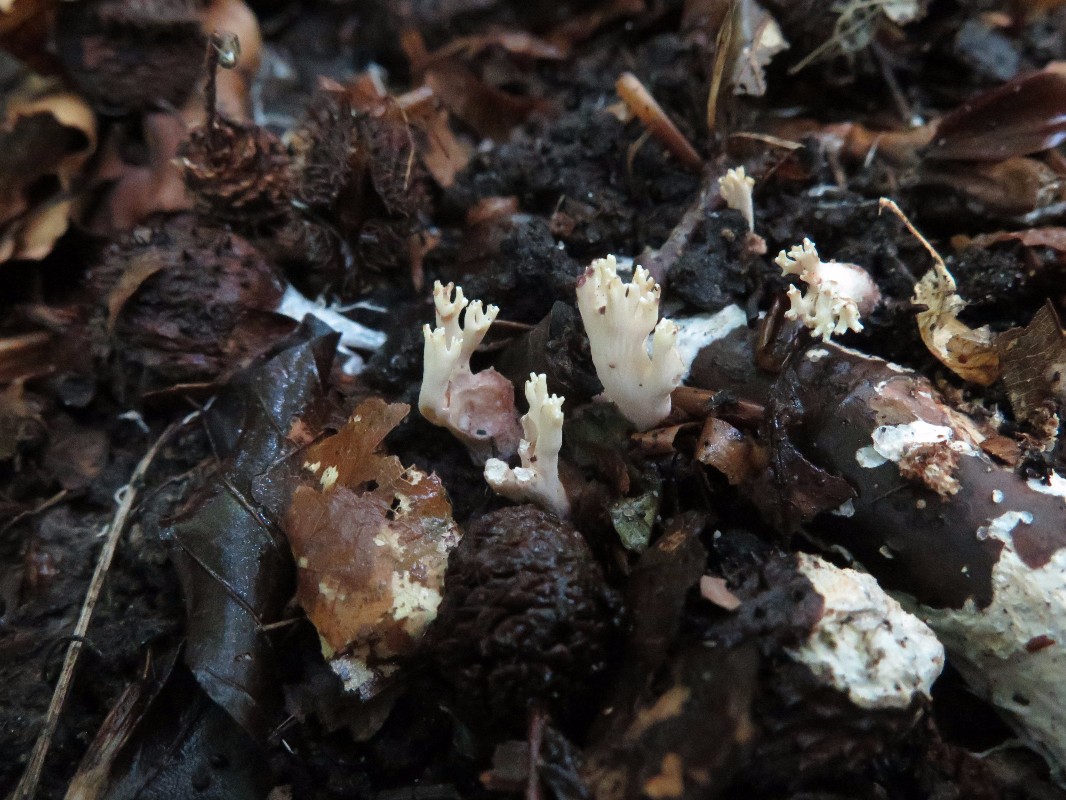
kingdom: Fungi
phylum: Basidiomycota
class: Agaricomycetes
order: Gomphales
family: Gomphaceae
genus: Ramaria
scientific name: Ramaria sanguinea
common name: blodplettet koralsvamp
